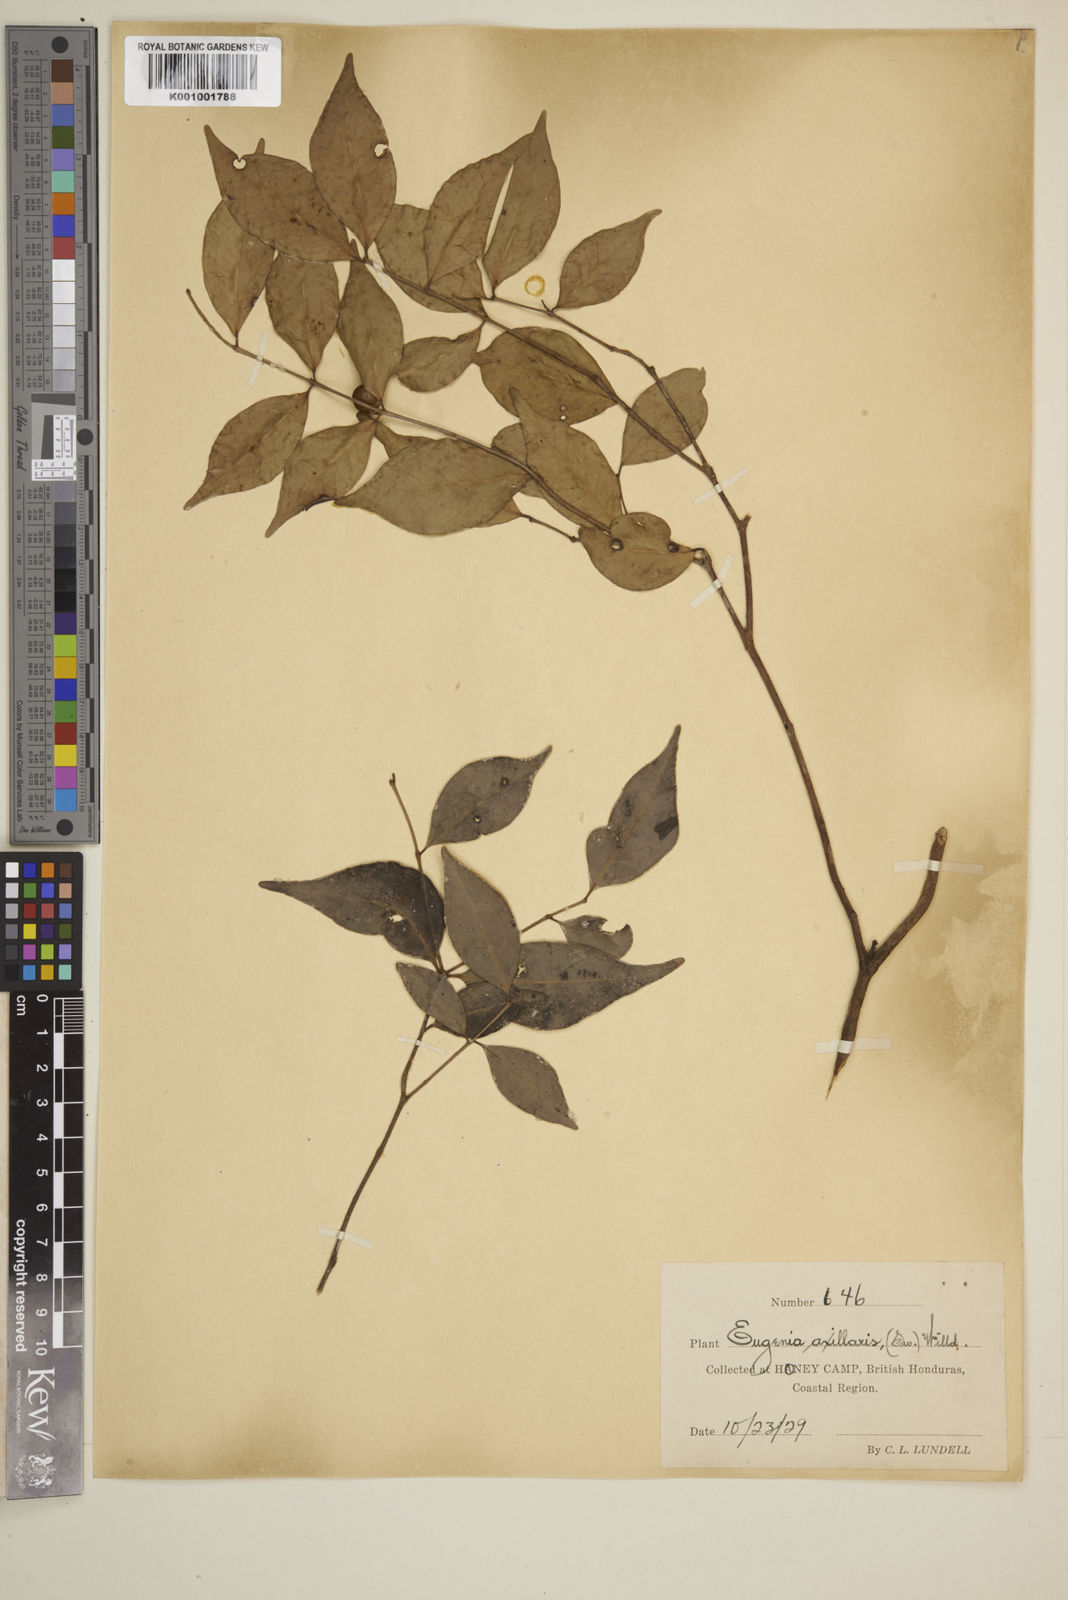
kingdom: Plantae
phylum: Tracheophyta
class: Magnoliopsida
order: Myrtales
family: Myrtaceae
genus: Eugenia
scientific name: Eugenia axillaris
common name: Choaky berry
